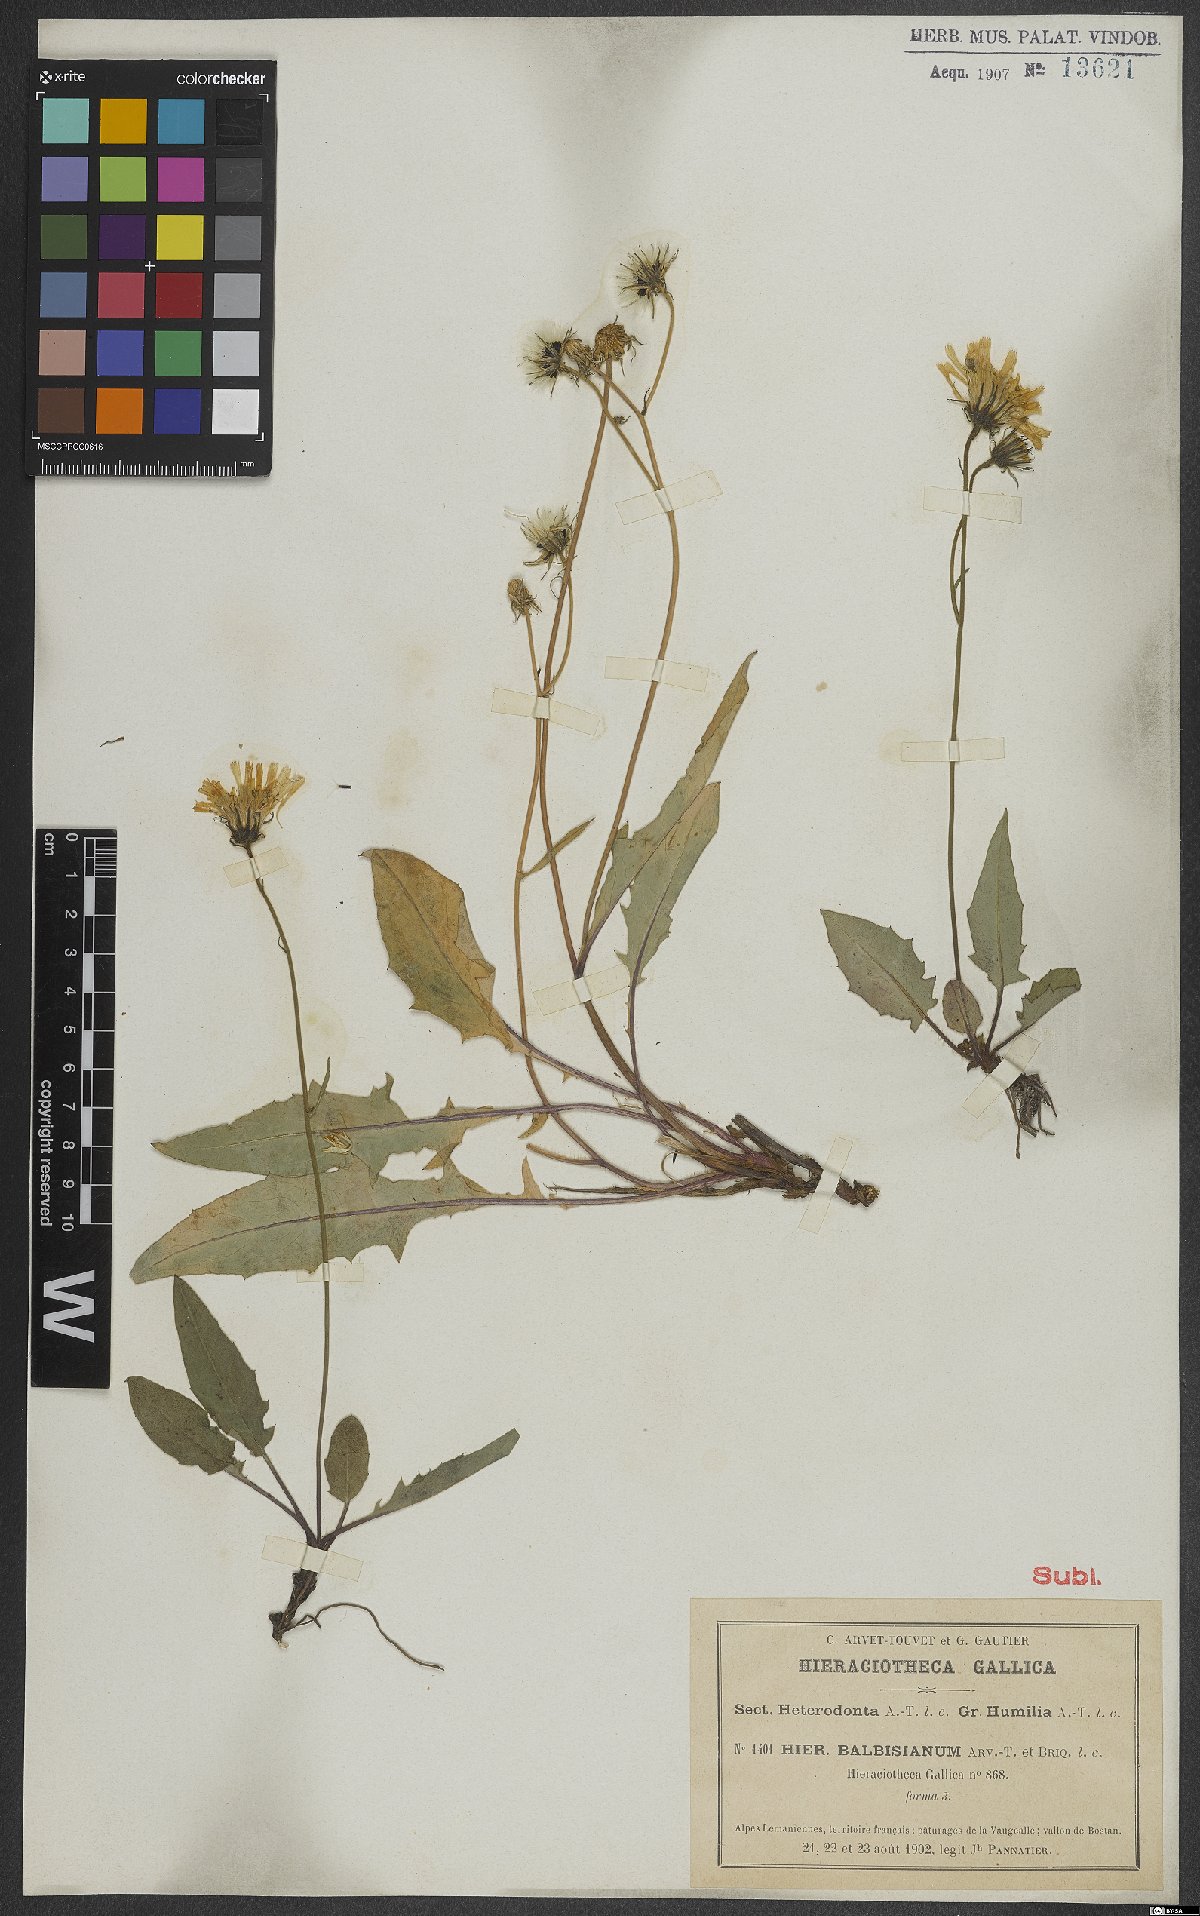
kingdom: Plantae
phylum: Tracheophyta
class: Magnoliopsida
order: Asterales
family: Asteraceae
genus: Hieracium
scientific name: Hieracium balbisianum
